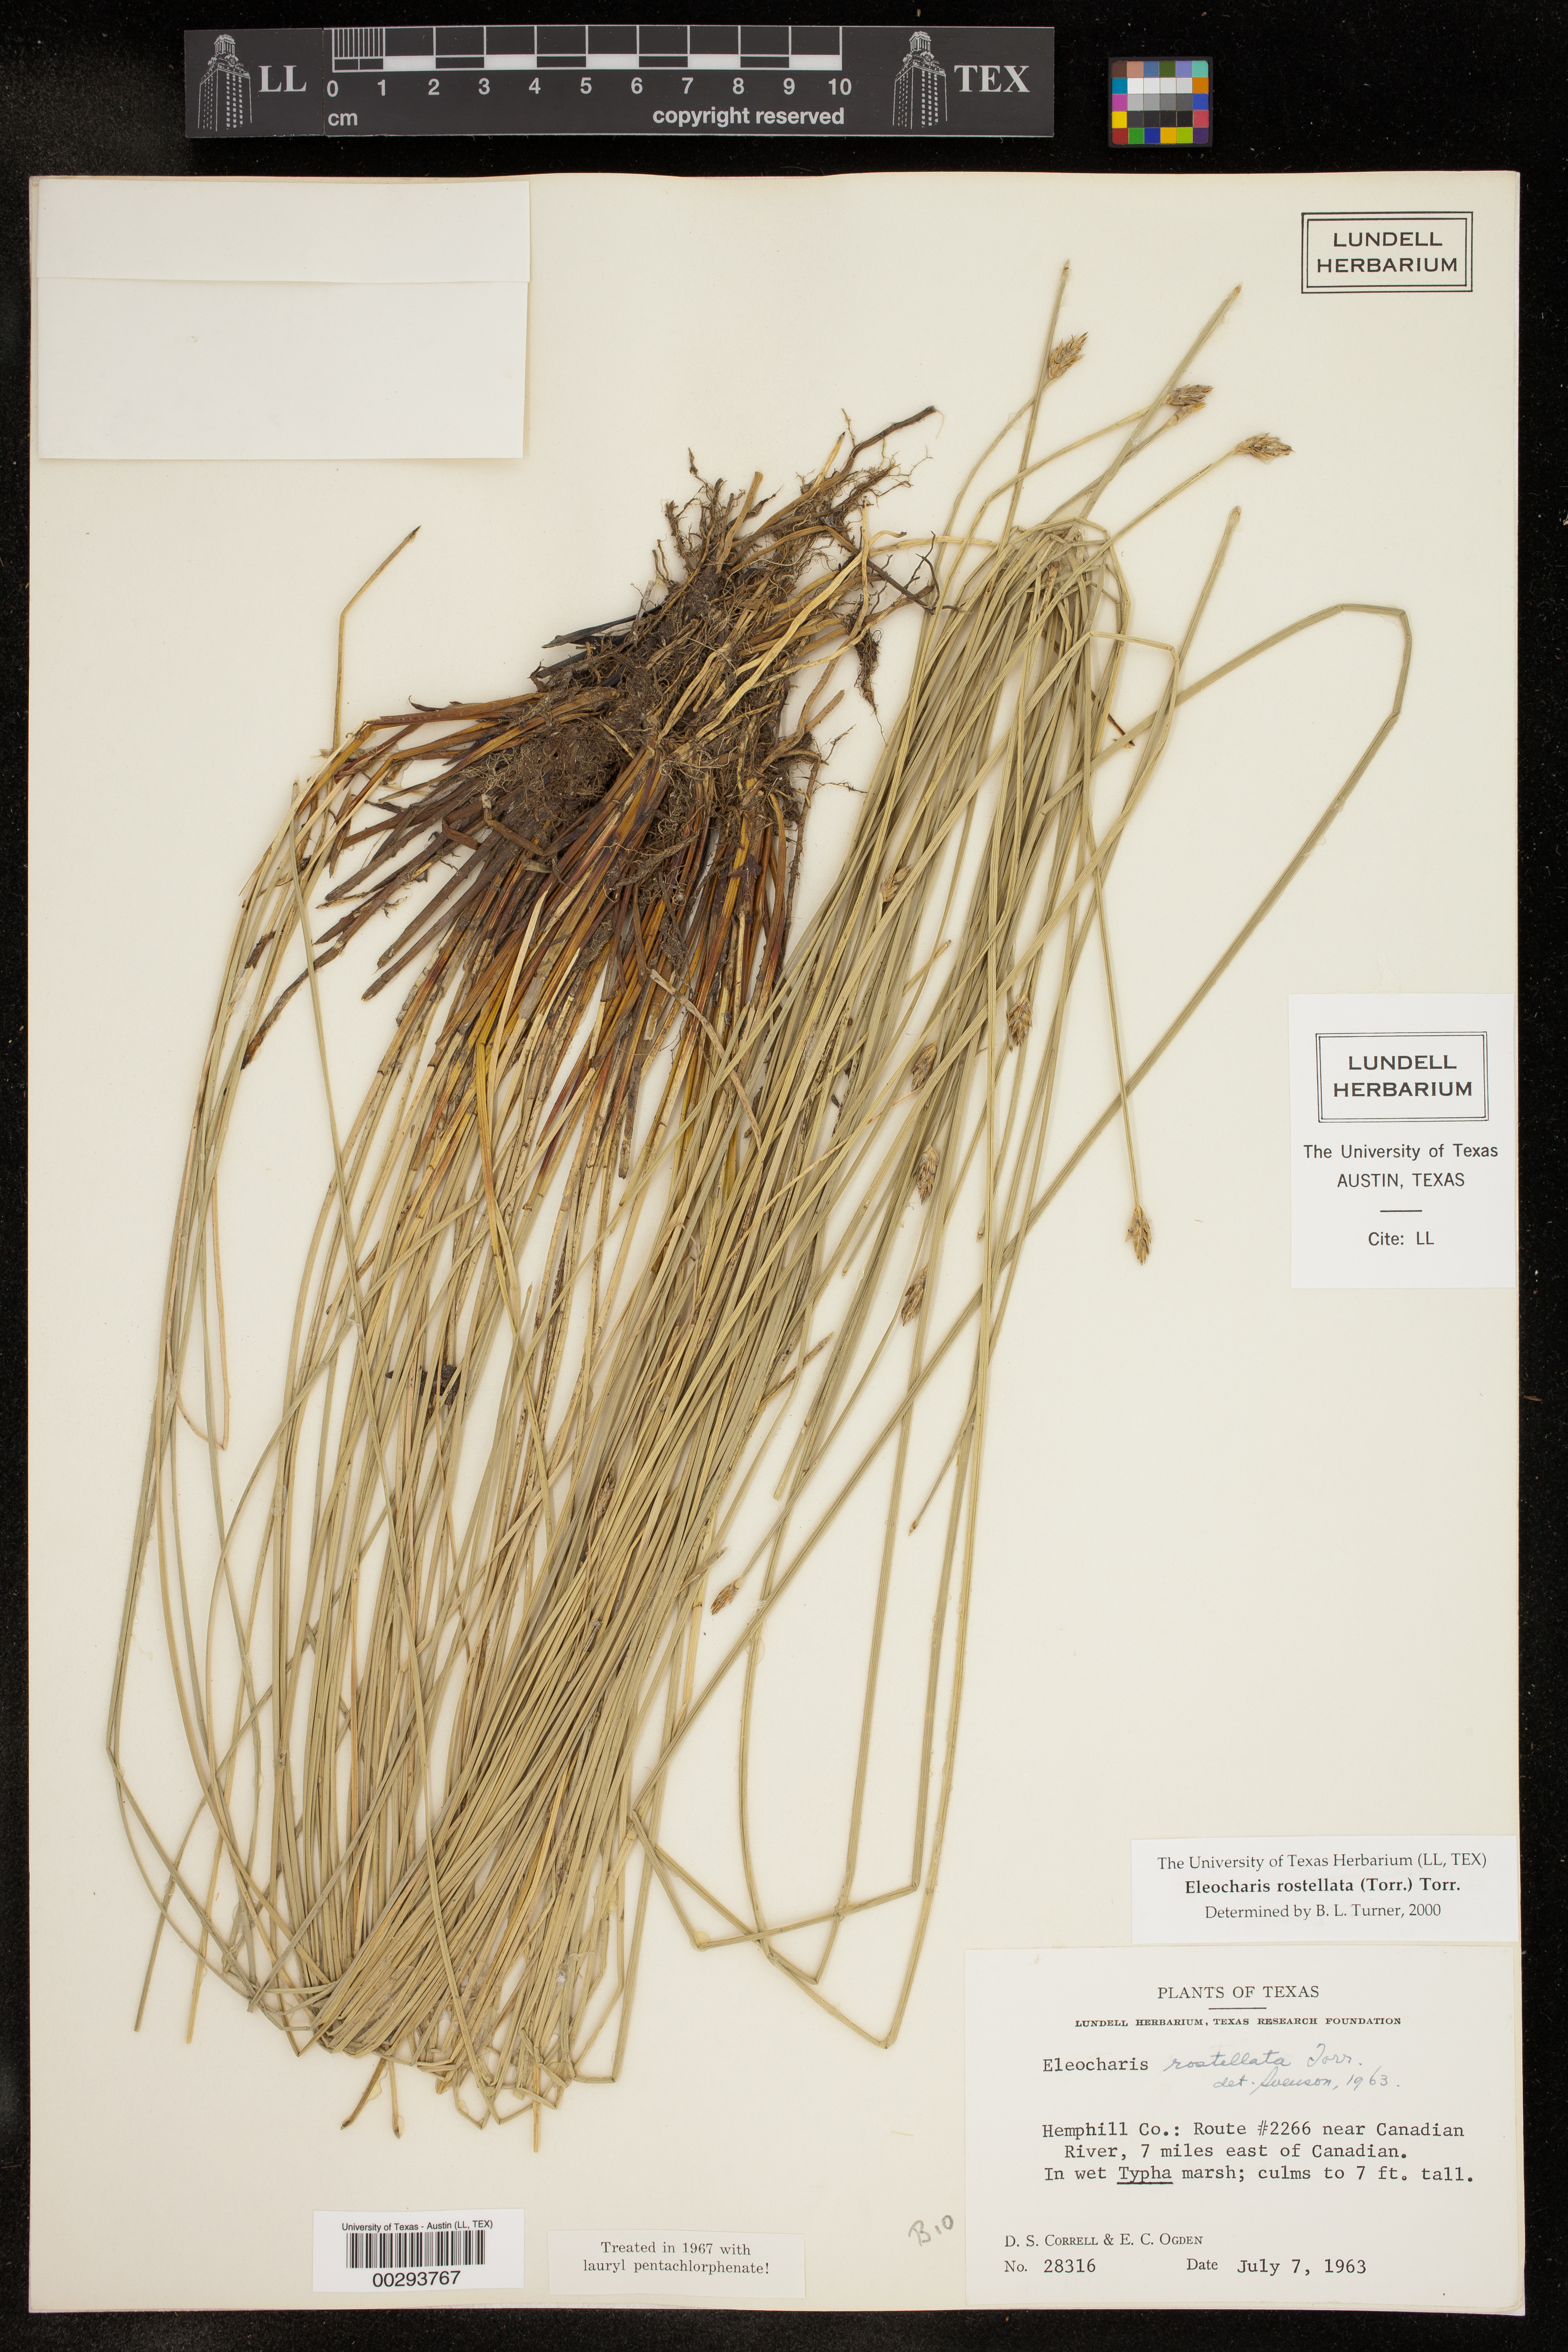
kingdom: Plantae
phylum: Tracheophyta
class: Liliopsida
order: Poales
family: Cyperaceae
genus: Eleocharis
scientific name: Eleocharis rostellata
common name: Walking sedge
